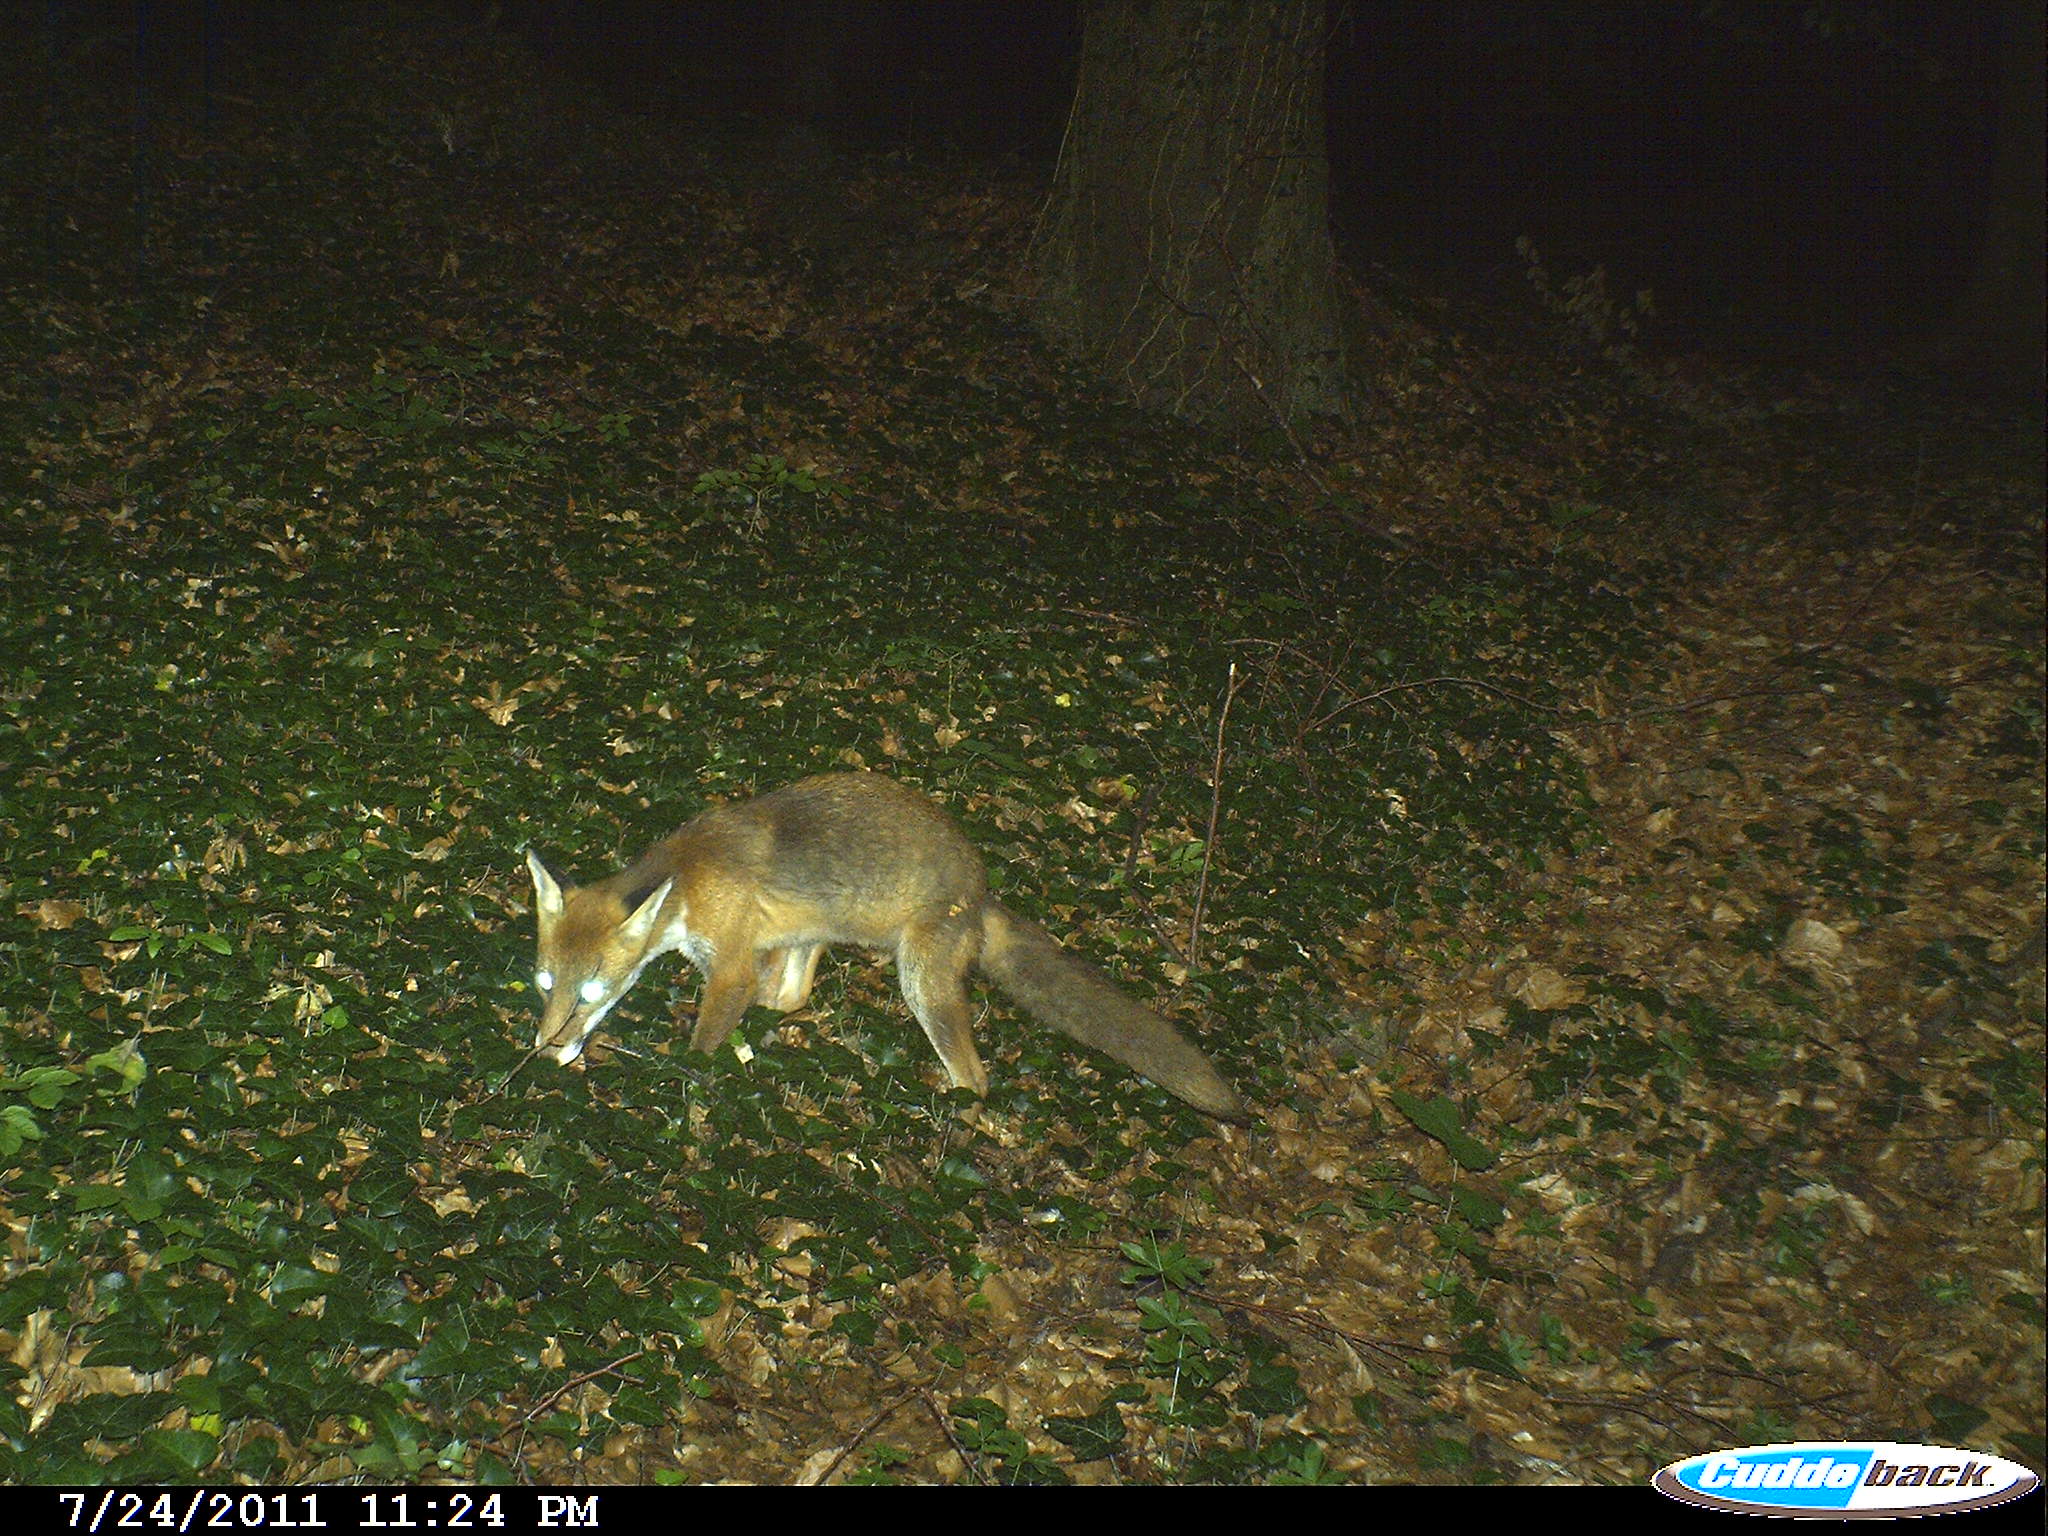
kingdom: Animalia
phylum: Chordata
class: Mammalia
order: Carnivora
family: Canidae
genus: Vulpes
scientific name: Vulpes vulpes
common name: Red fox
